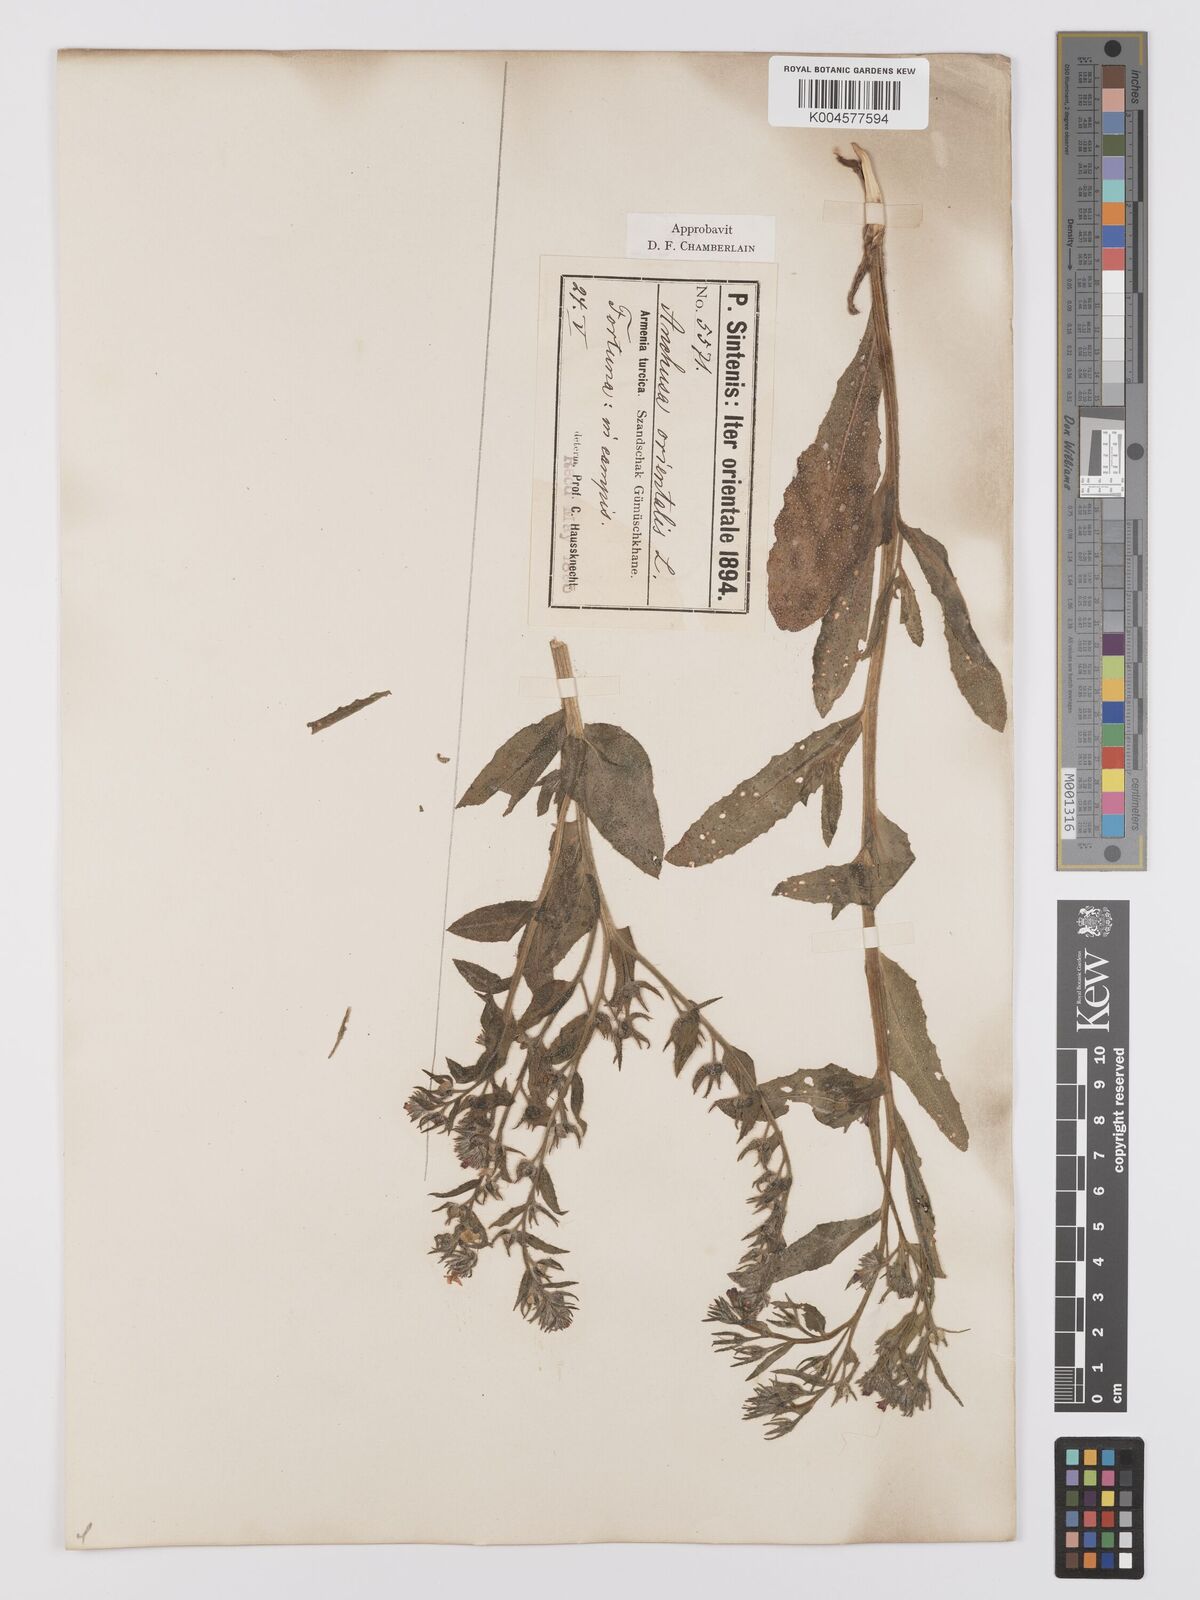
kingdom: Plantae
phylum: Tracheophyta
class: Magnoliopsida
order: Boraginales
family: Boraginaceae
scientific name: Boraginaceae
